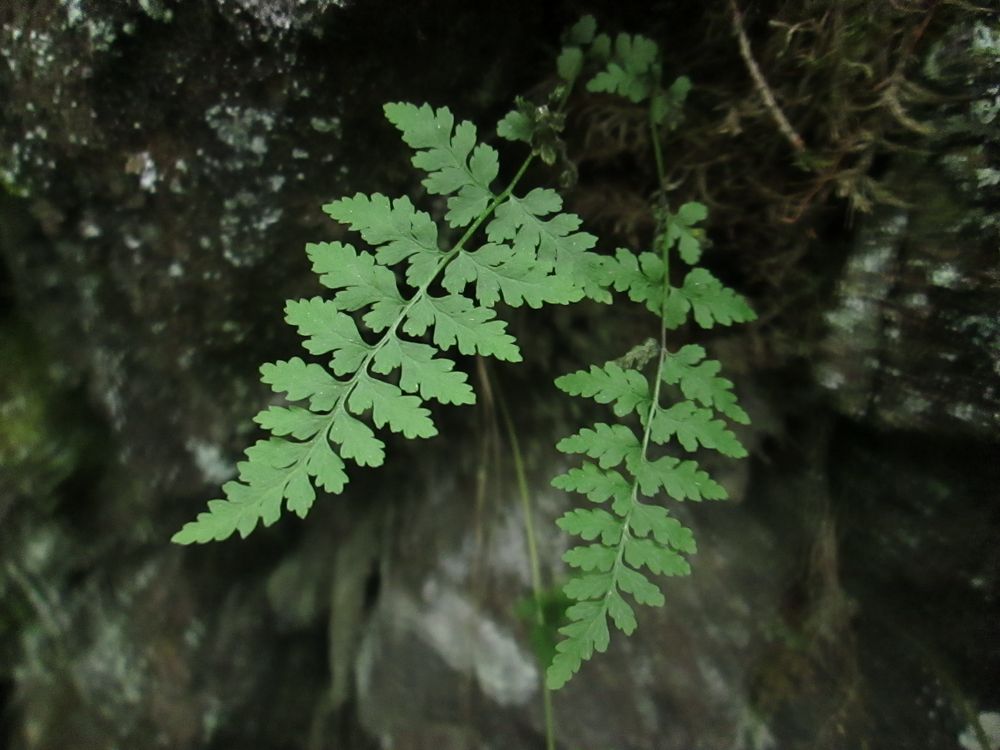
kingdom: Plantae
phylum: Tracheophyta
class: Polypodiopsida
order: Polypodiales
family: Cystopteridaceae
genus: Cystopteris
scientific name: Cystopteris fragilis
